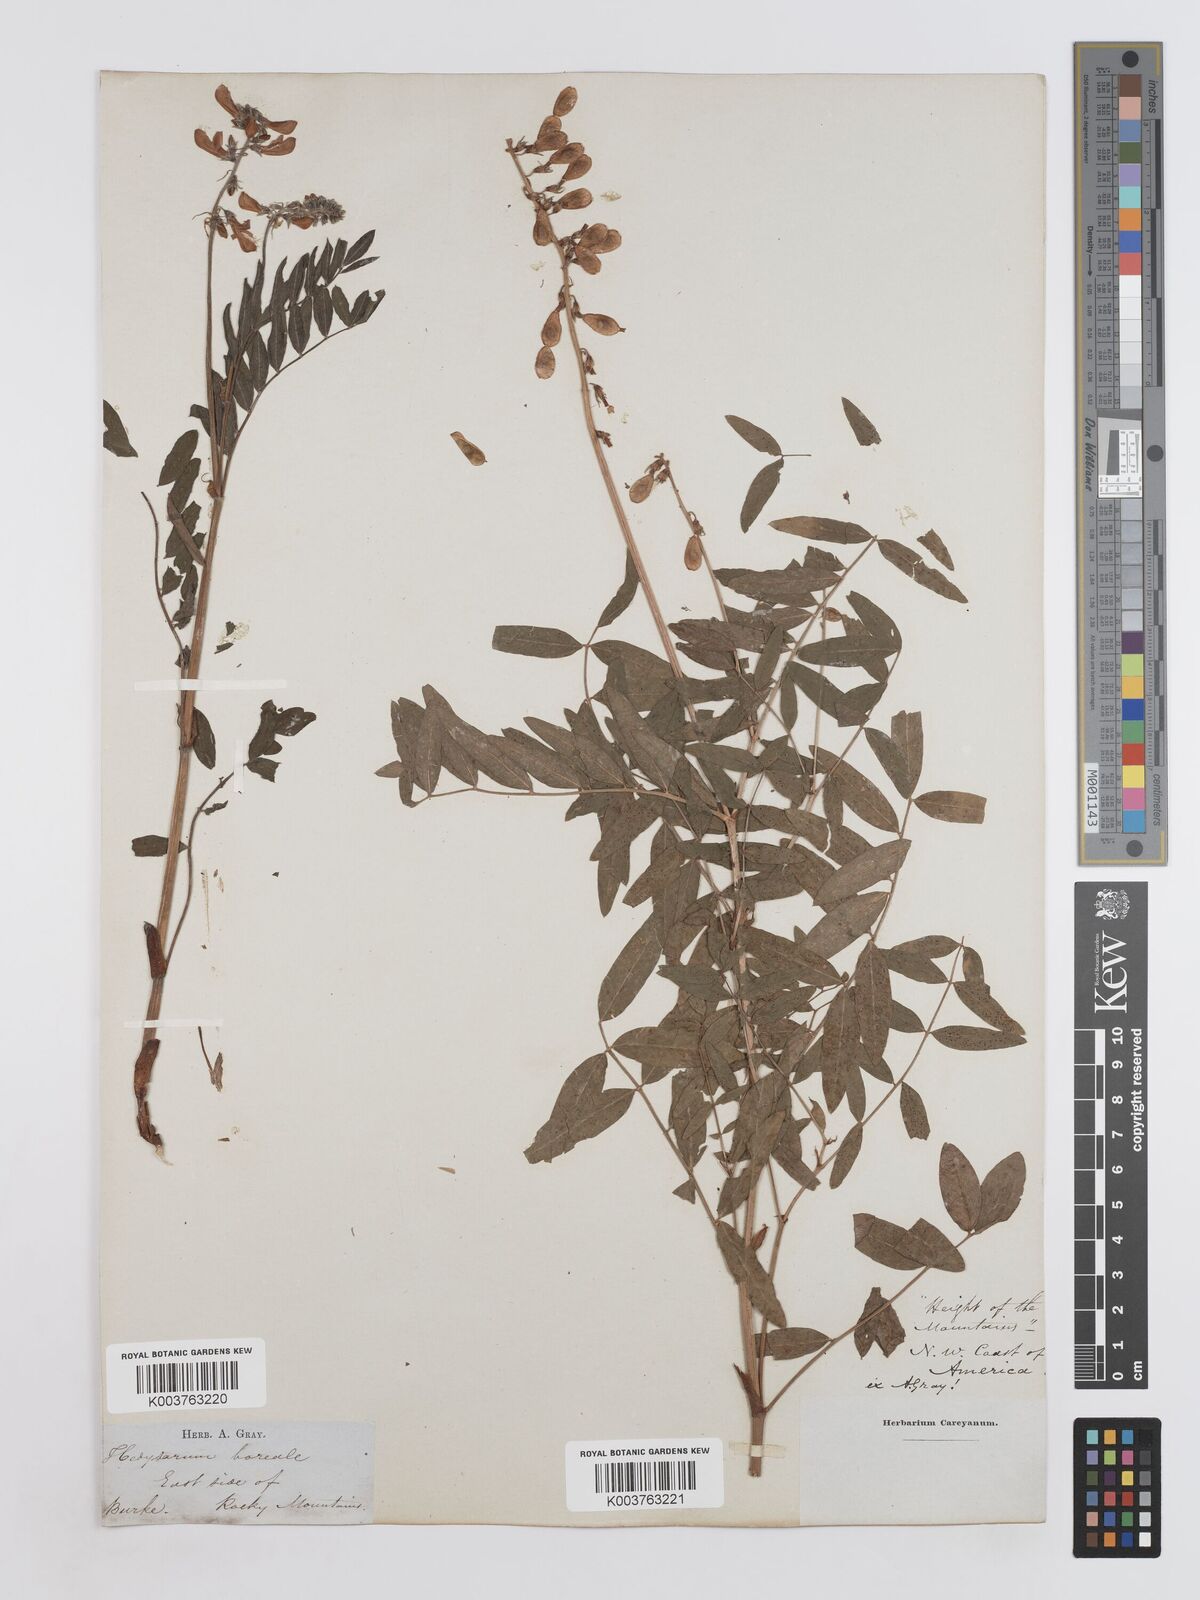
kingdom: Plantae
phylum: Tracheophyta
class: Magnoliopsida
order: Fabales
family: Fabaceae
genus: Hedysarum
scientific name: Hedysarum boreale
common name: Northern sweet-vetch
